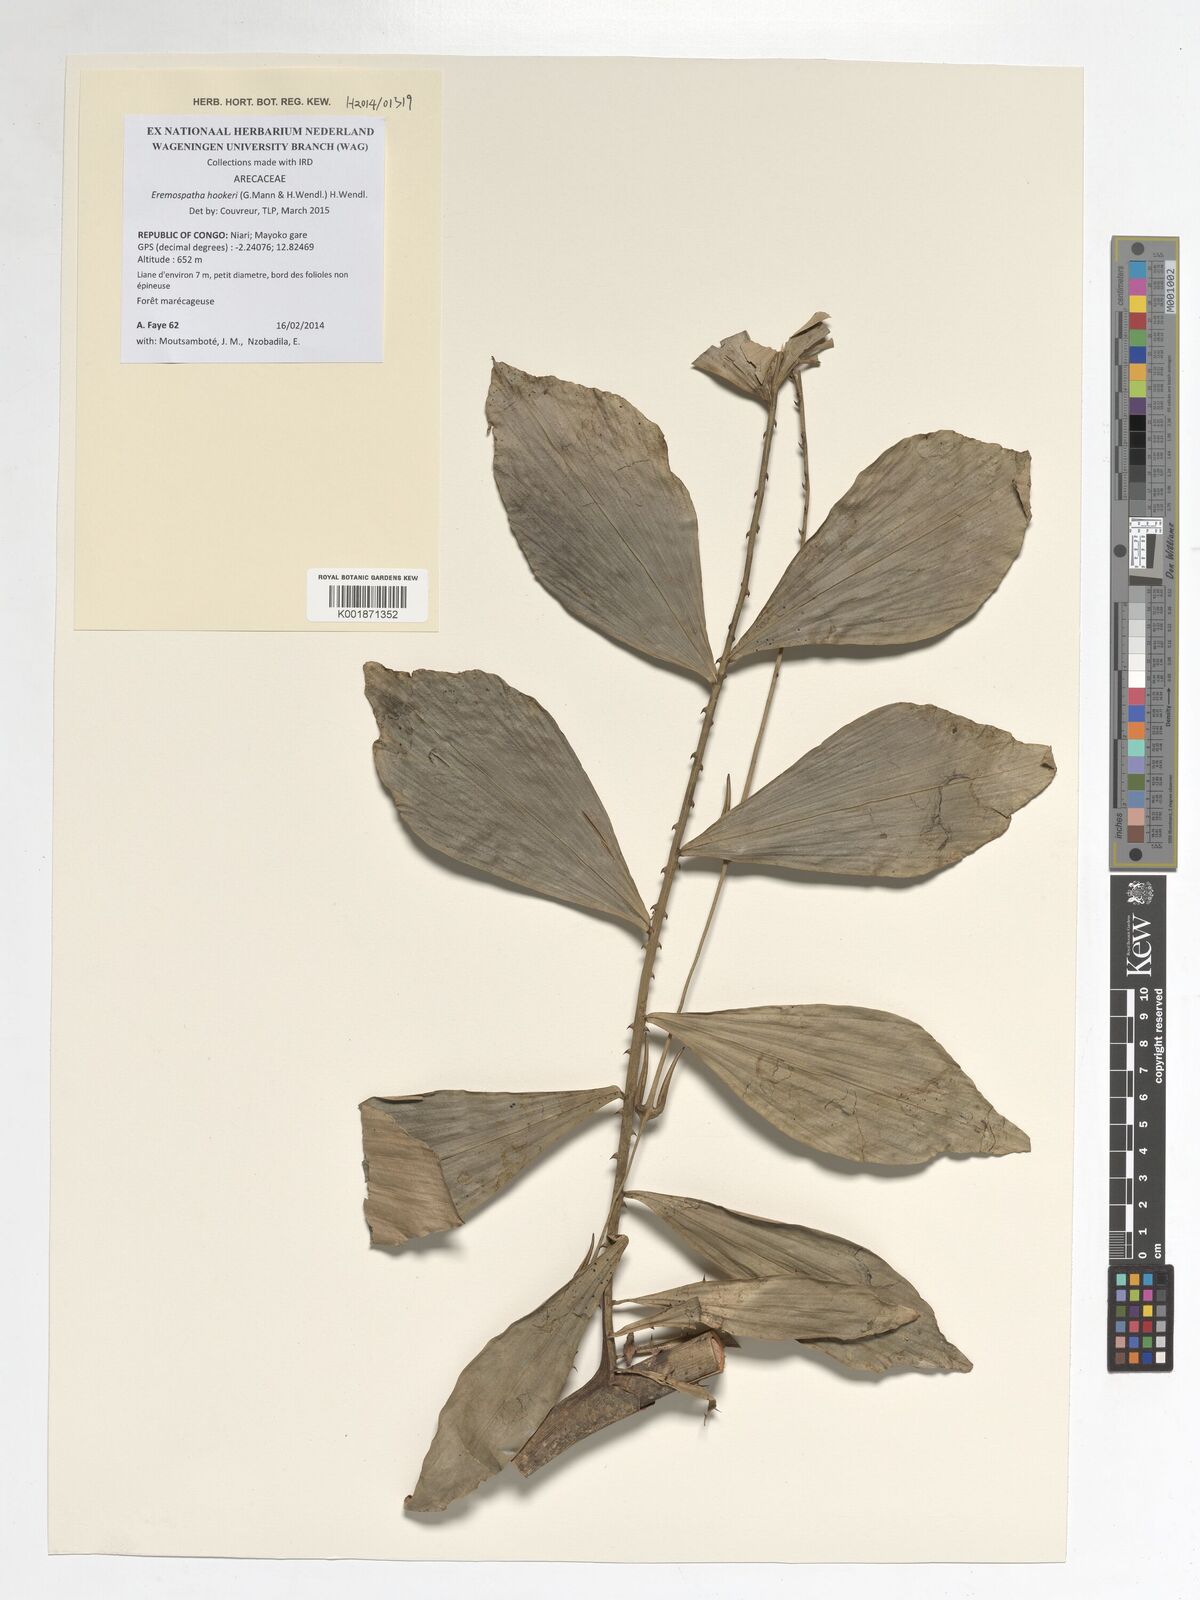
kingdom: Plantae
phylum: Tracheophyta
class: Liliopsida
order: Arecales
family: Arecaceae
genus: Eremospatha
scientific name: Eremospatha hookeri
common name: Rattan
